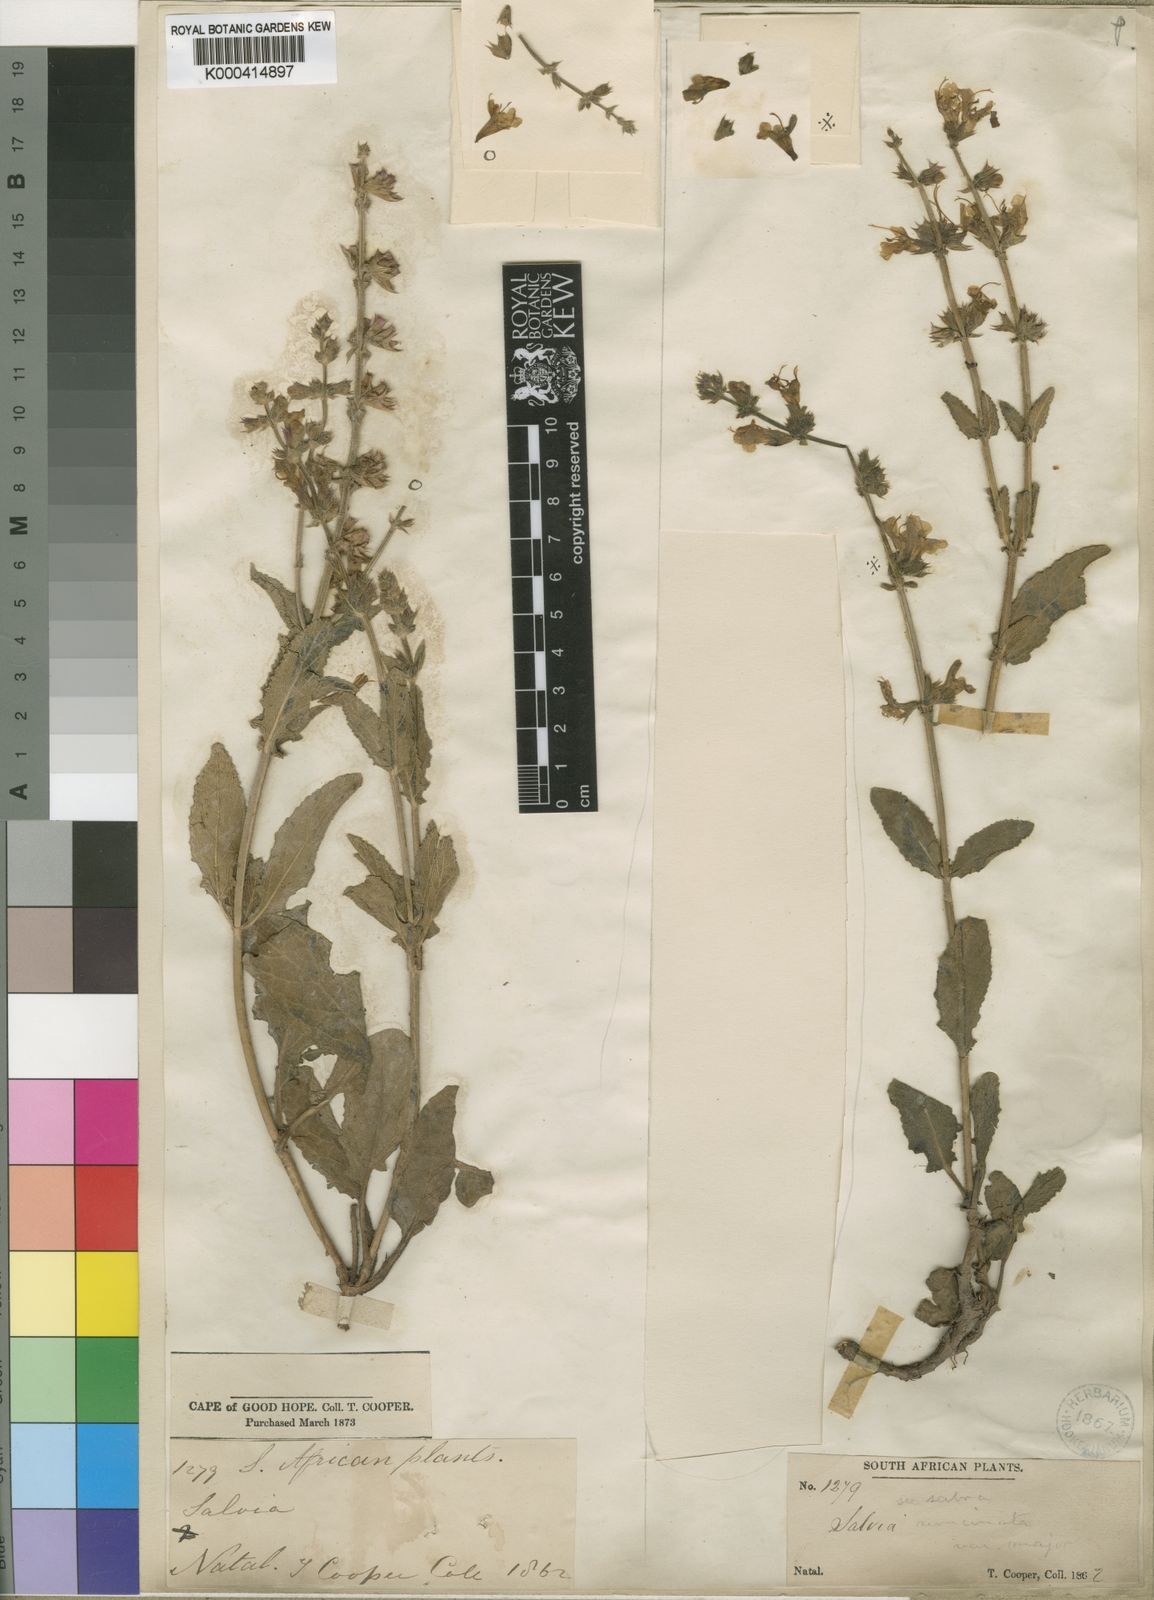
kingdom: Plantae
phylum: Tracheophyta
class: Magnoliopsida
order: Lamiales
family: Lamiaceae
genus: Salvia
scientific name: Salvia repens
